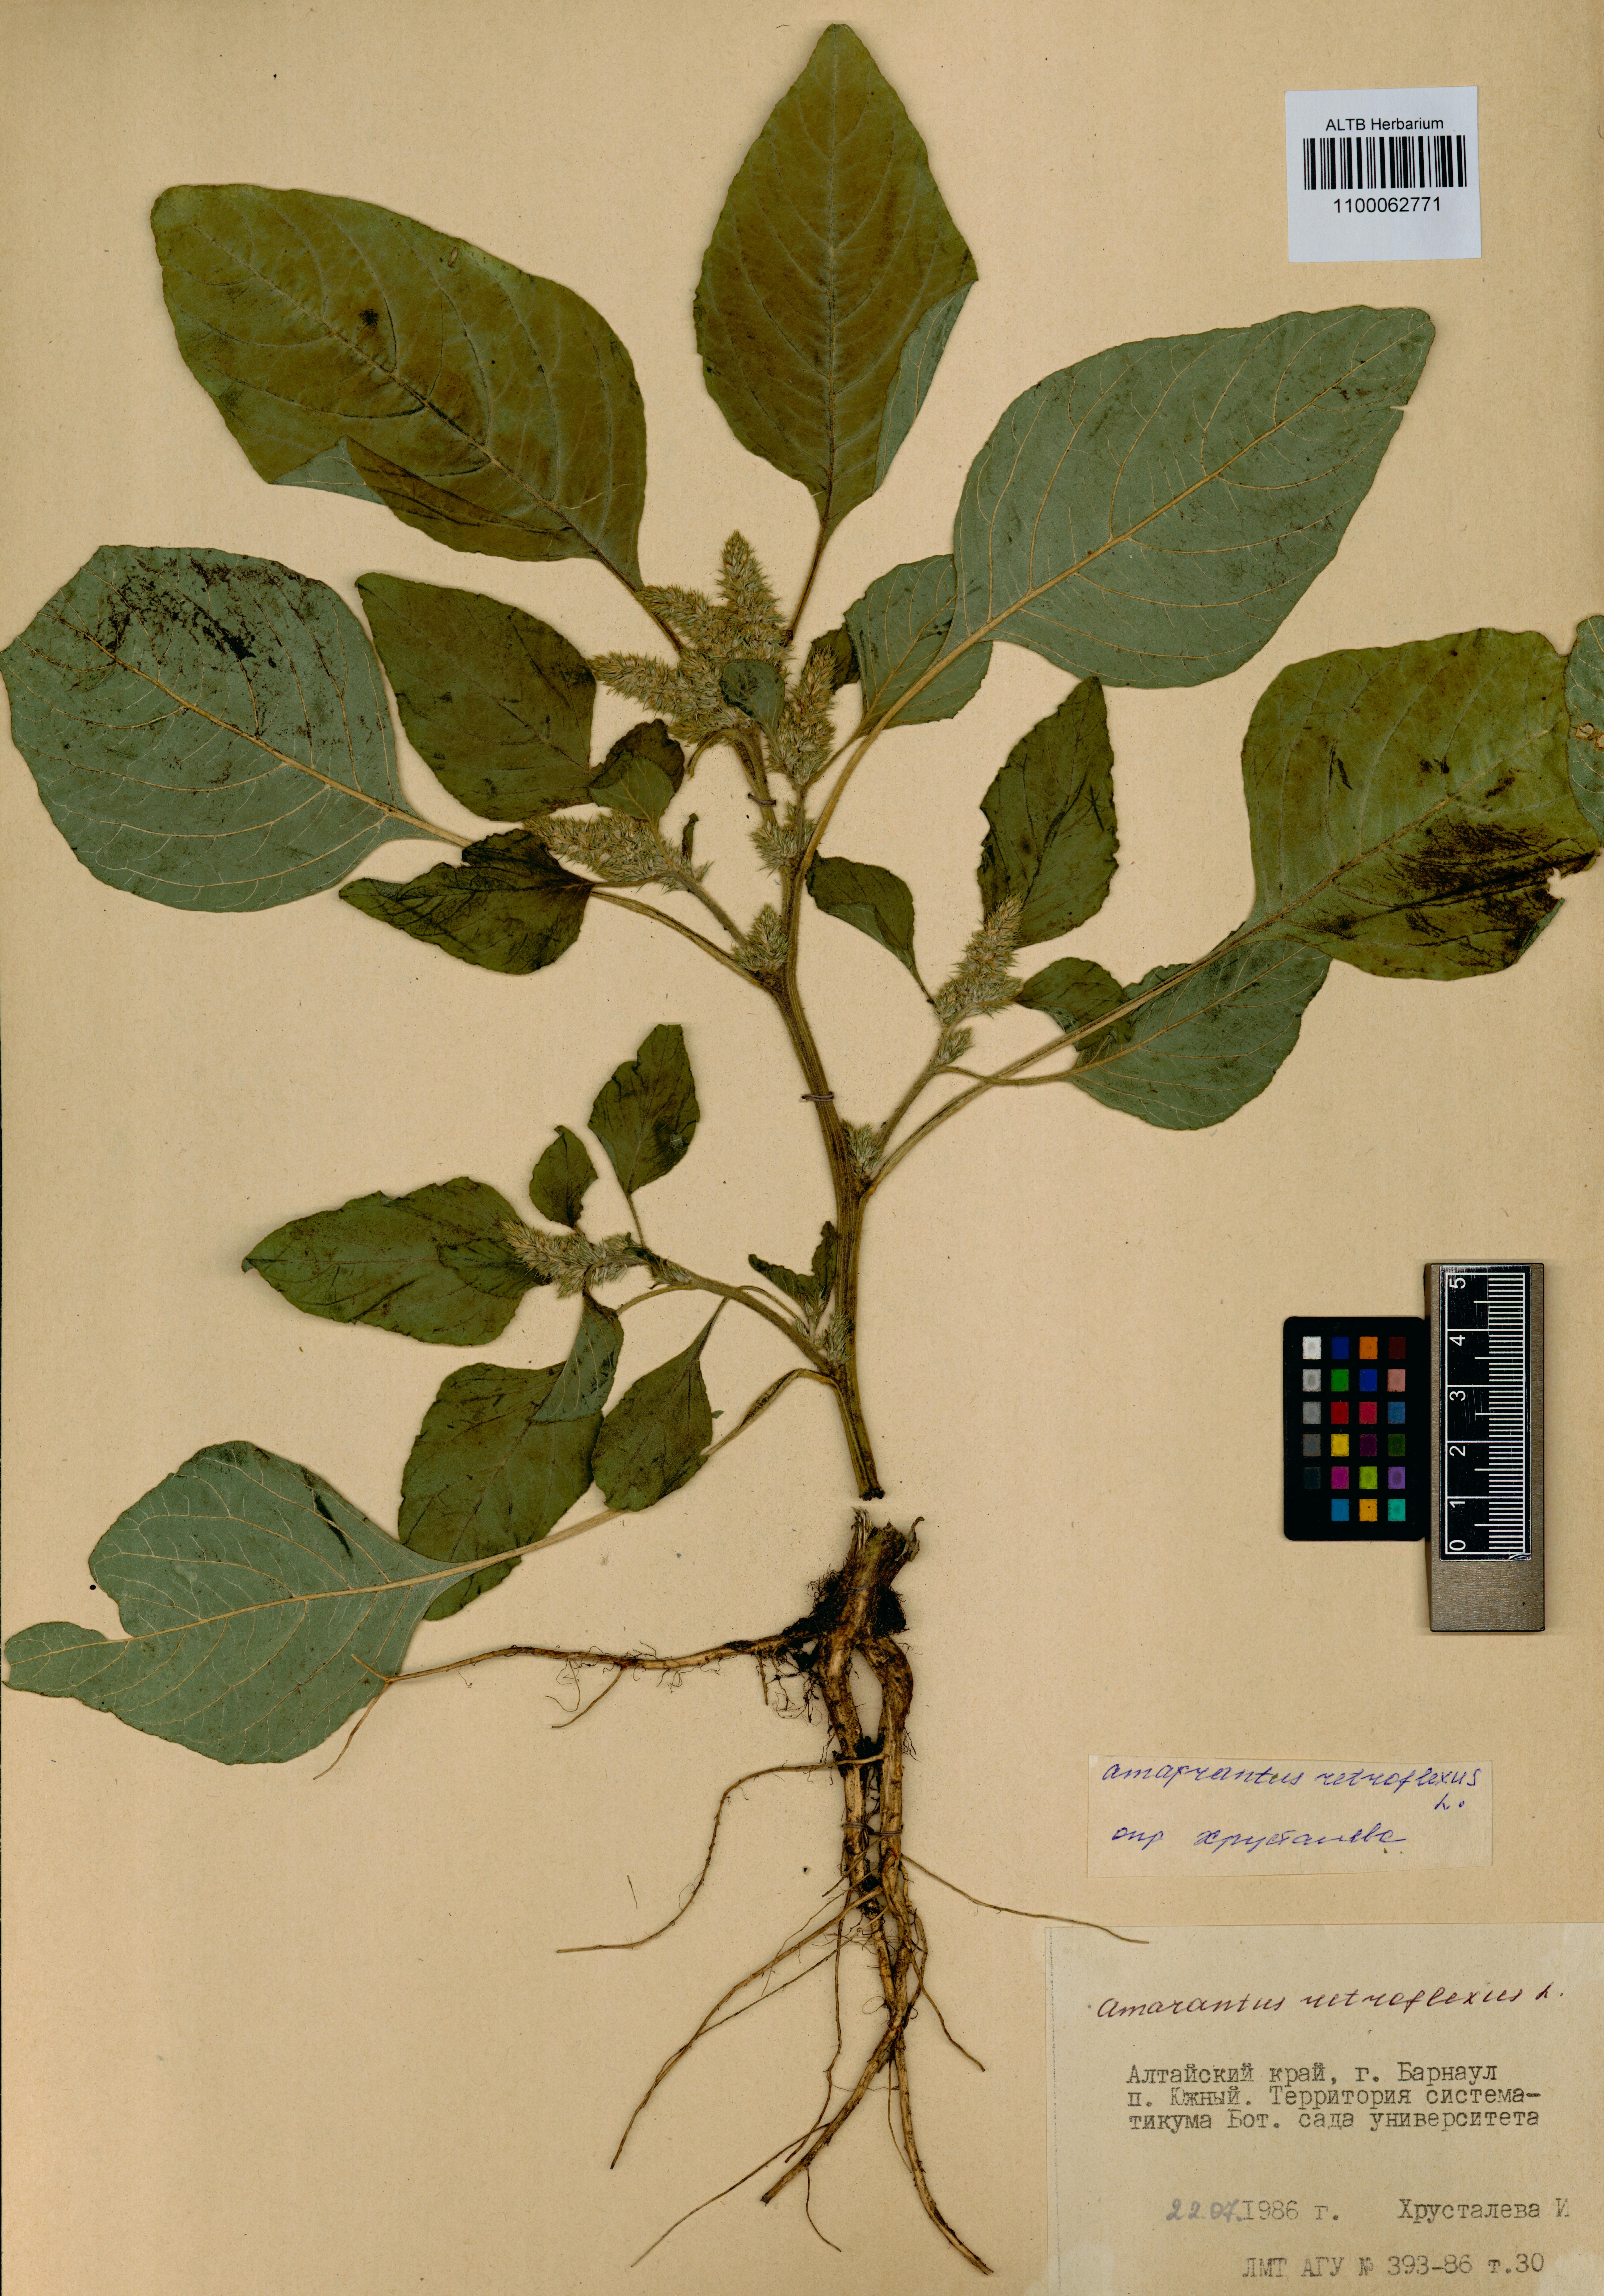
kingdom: Plantae
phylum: Tracheophyta
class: Magnoliopsida
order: Caryophyllales
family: Amaranthaceae
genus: Amaranthus
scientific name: Amaranthus retroflexus
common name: Redroot amaranth
